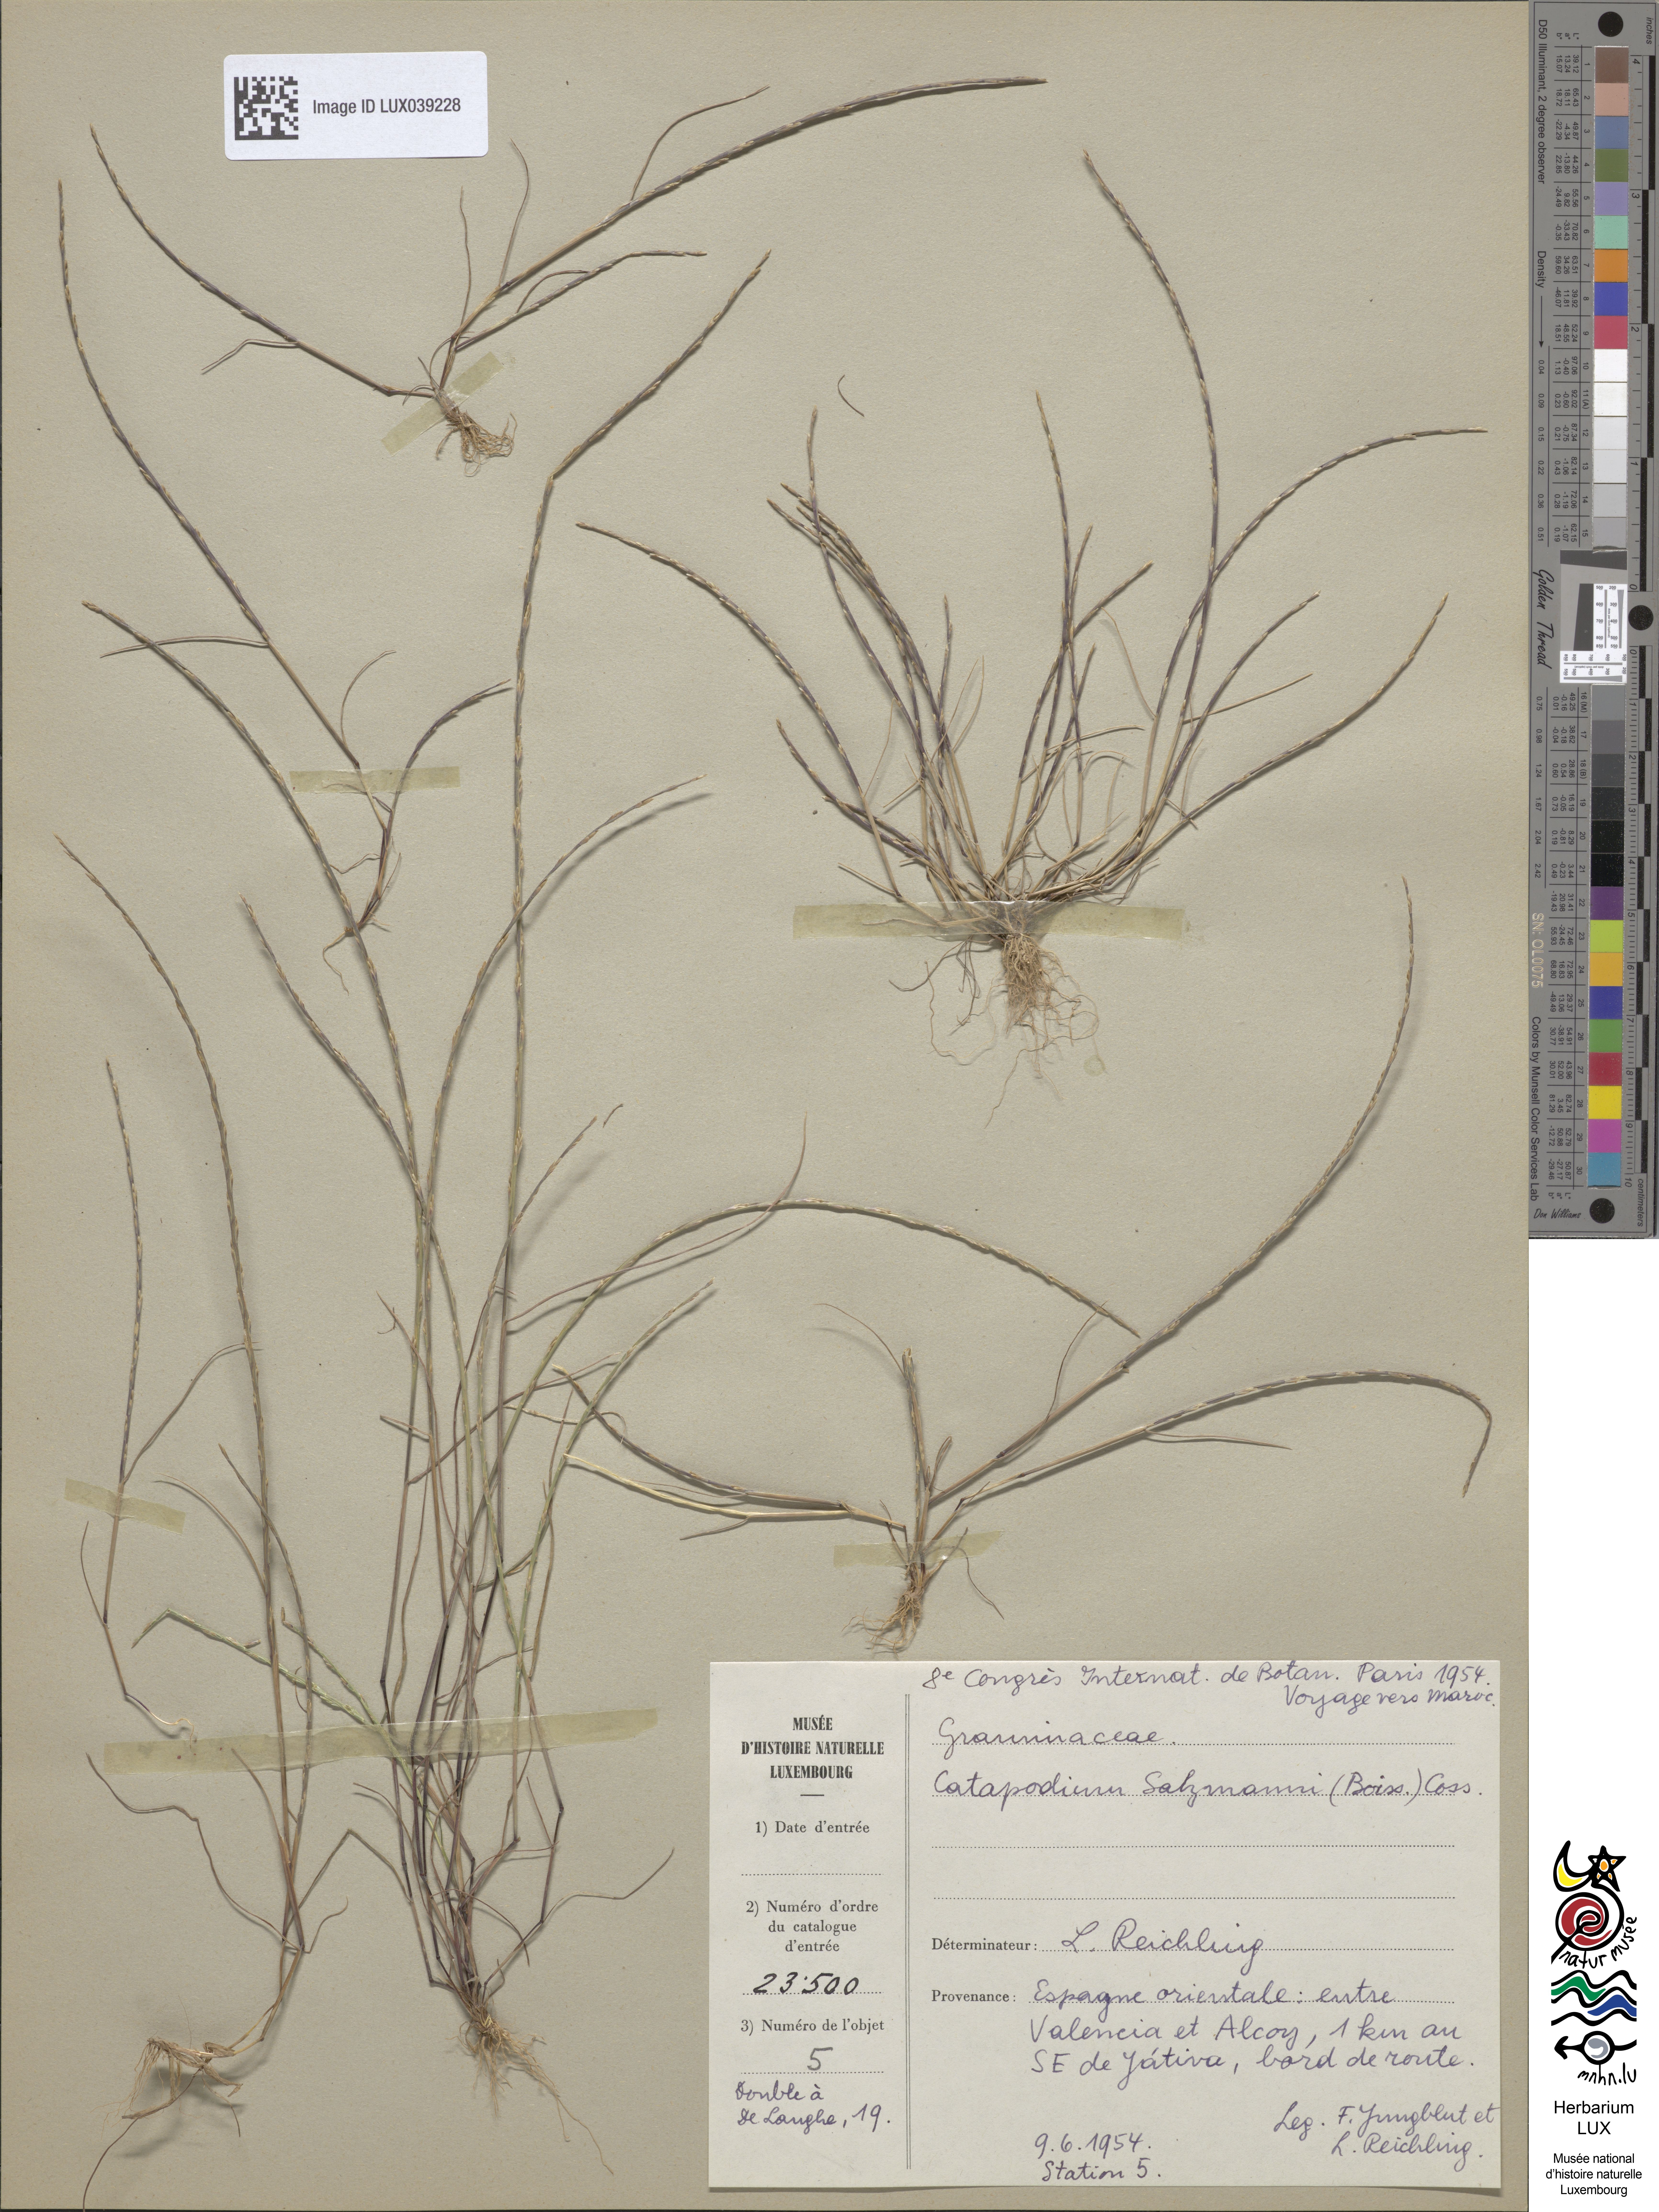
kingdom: Plantae
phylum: Tracheophyta
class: Liliopsida
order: Poales
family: Poaceae
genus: Festuca
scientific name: Festuca salzmannii
